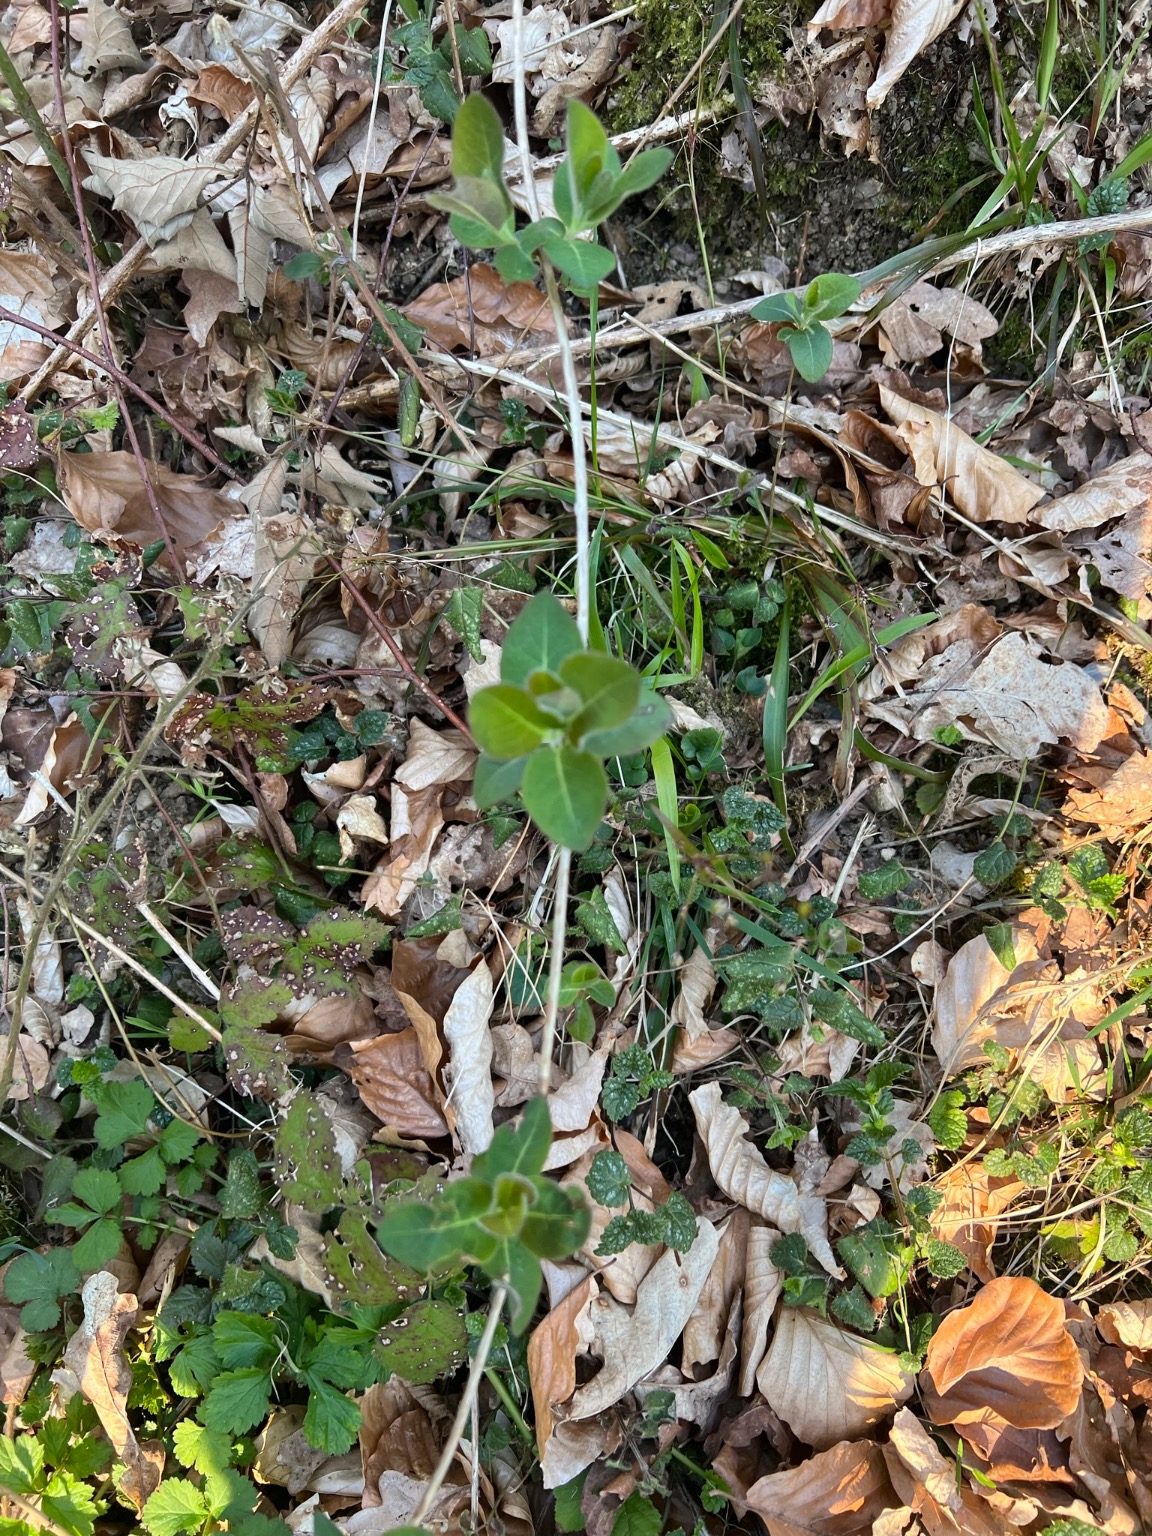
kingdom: Plantae
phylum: Tracheophyta
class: Magnoliopsida
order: Dipsacales
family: Caprifoliaceae
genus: Lonicera
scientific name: Lonicera periclymenum
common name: Almindelig gedeblad
